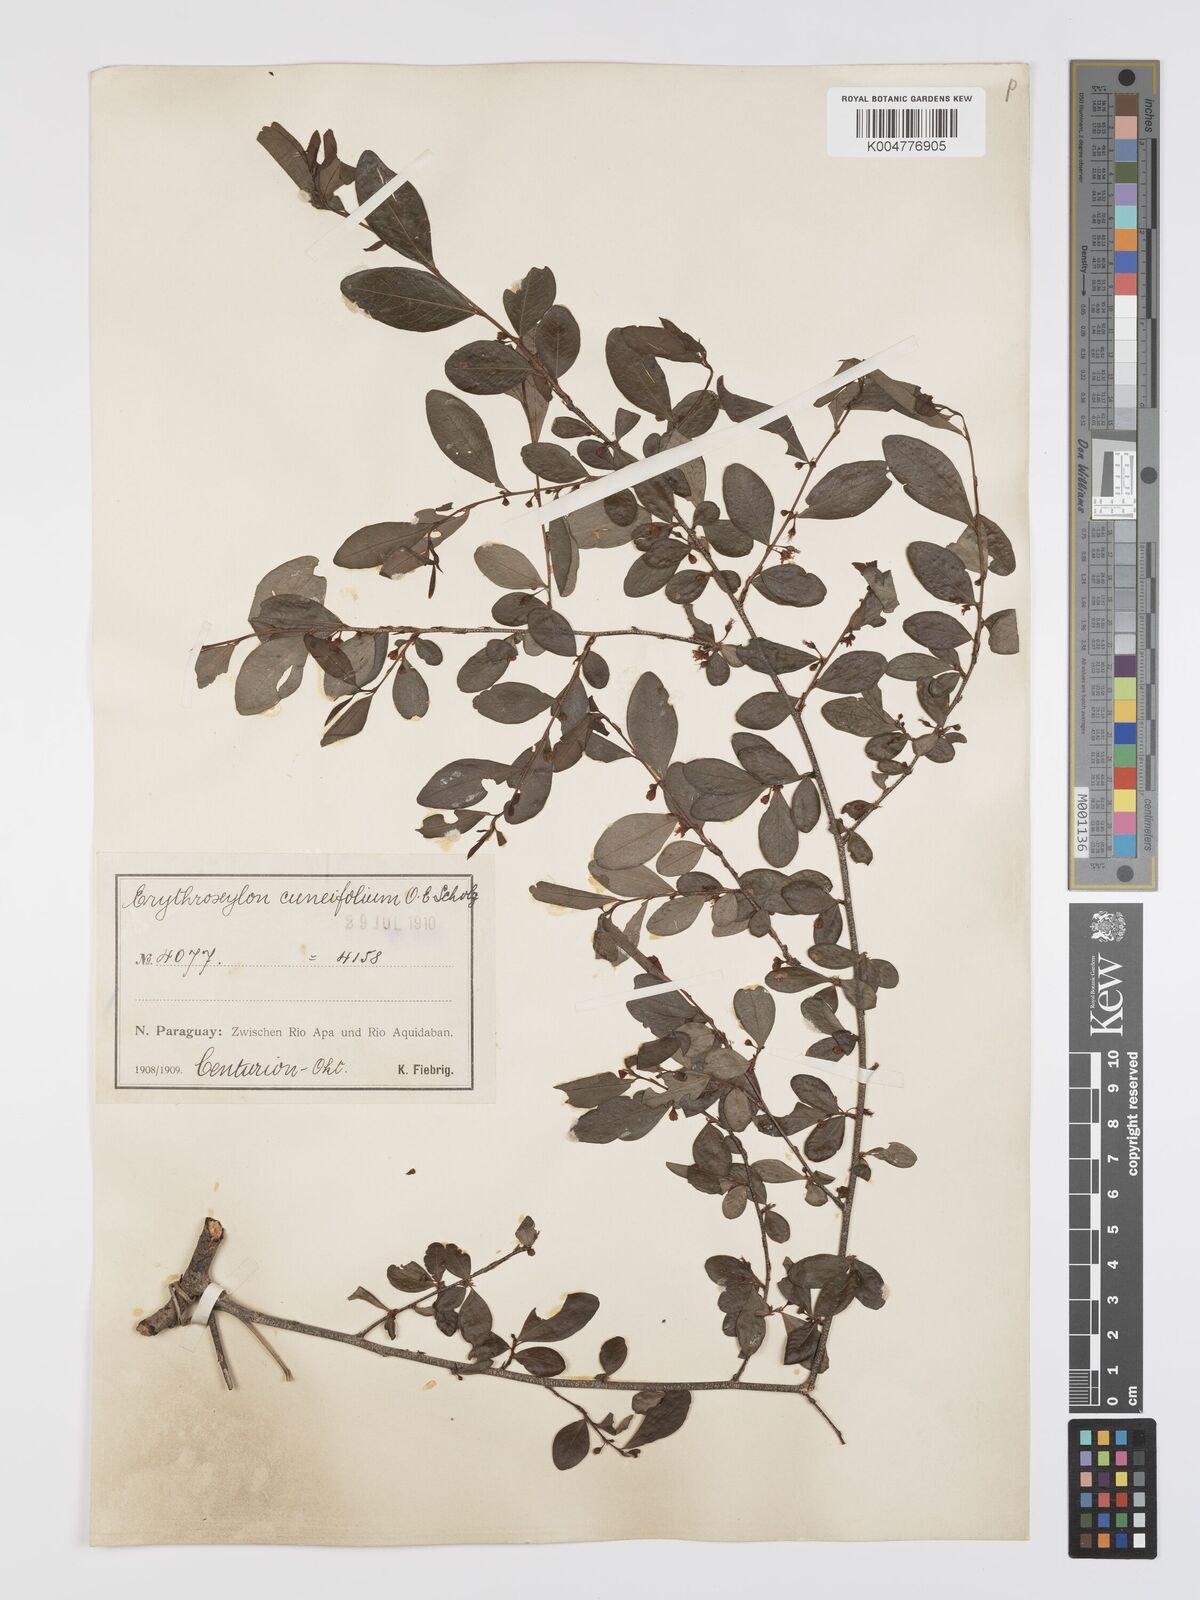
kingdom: Plantae
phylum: Tracheophyta
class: Magnoliopsida
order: Malpighiales
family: Erythroxylaceae
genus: Erythroxylum
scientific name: Erythroxylum cuneifolium
